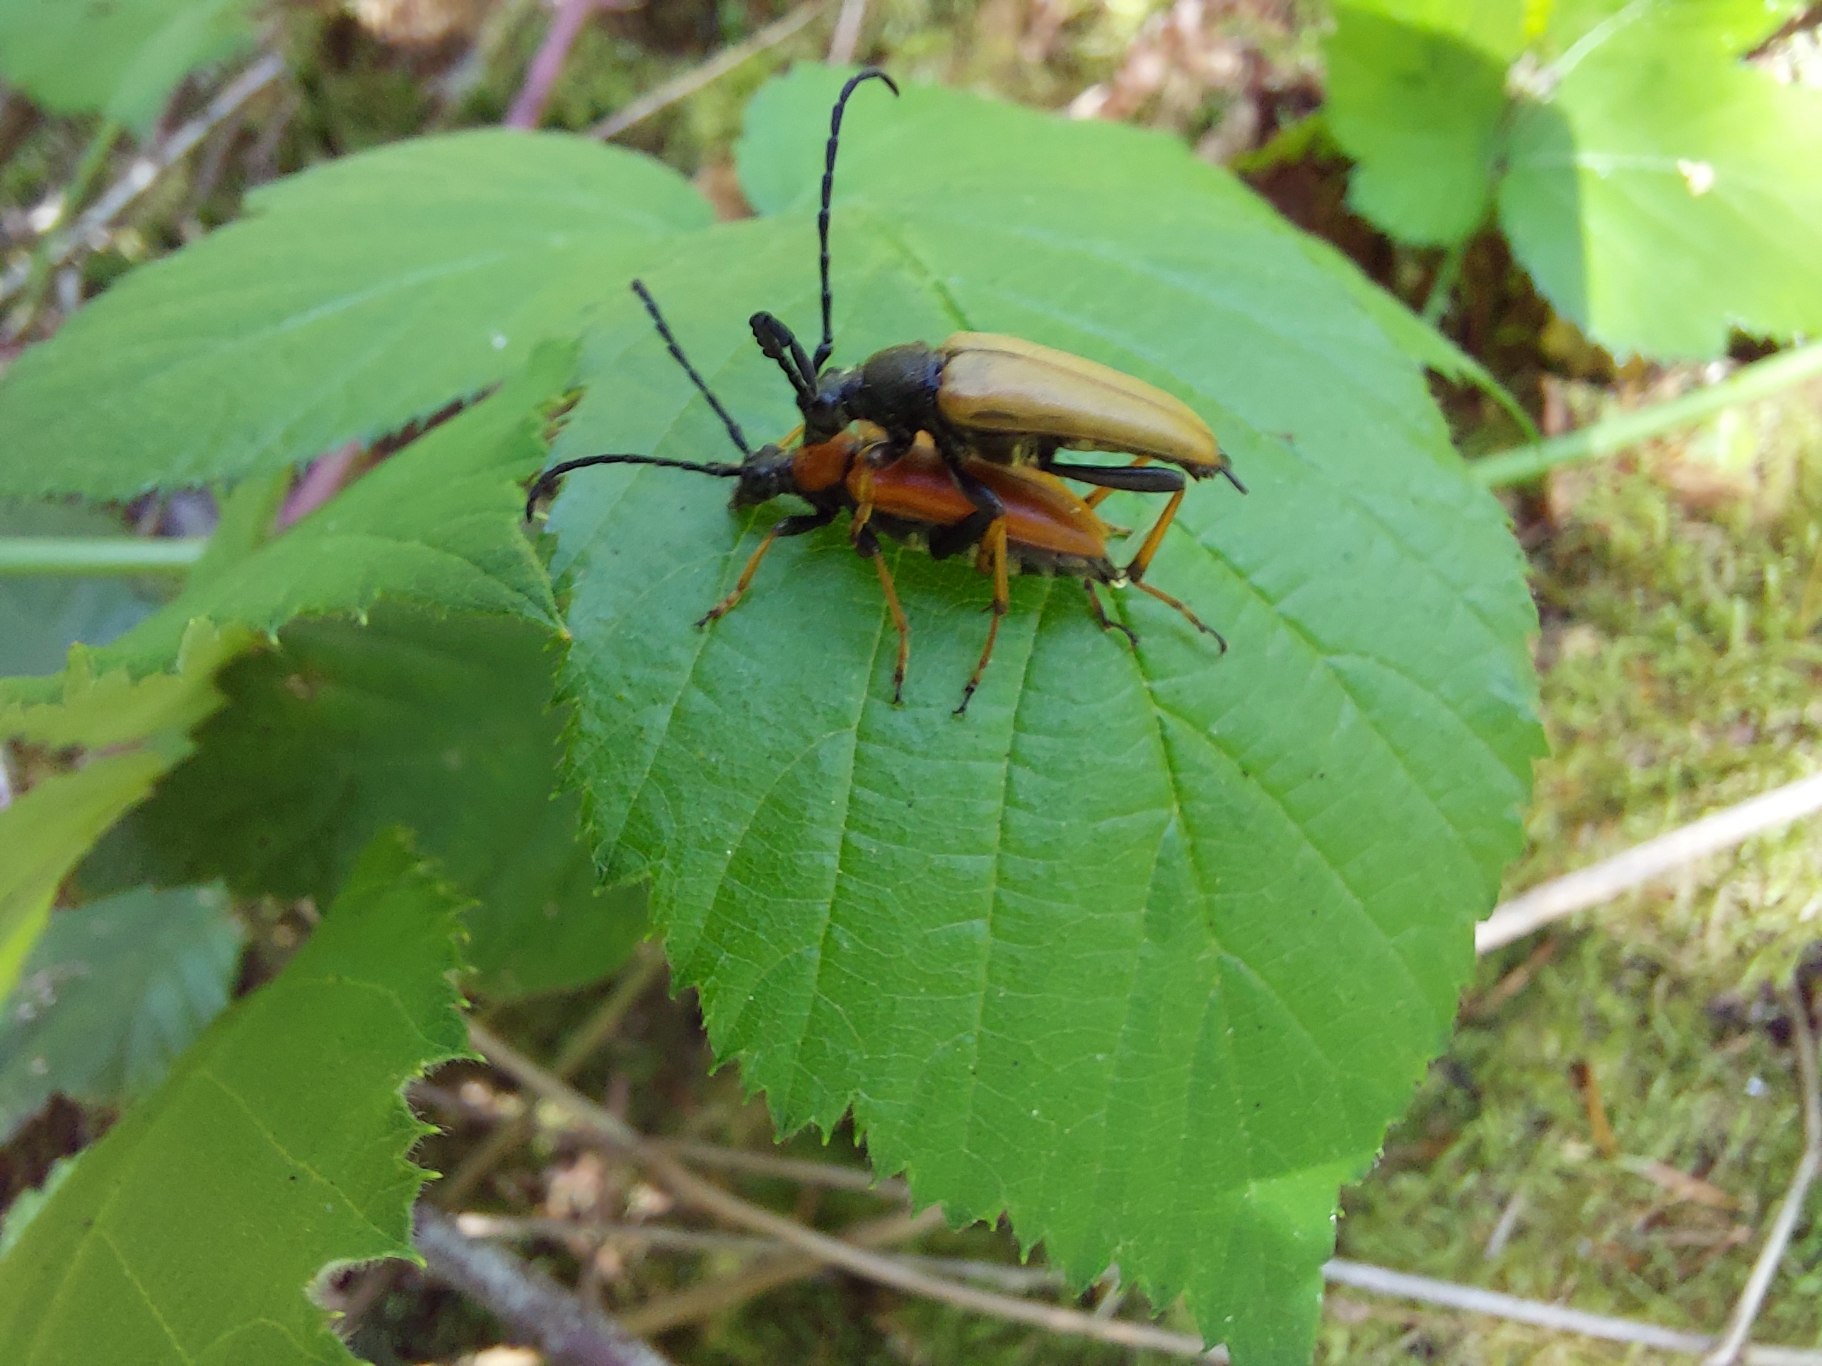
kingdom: Animalia
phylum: Arthropoda
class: Insecta
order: Coleoptera
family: Cerambycidae
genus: Stictoleptura
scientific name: Stictoleptura rubra
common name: Rød blomsterbuk
